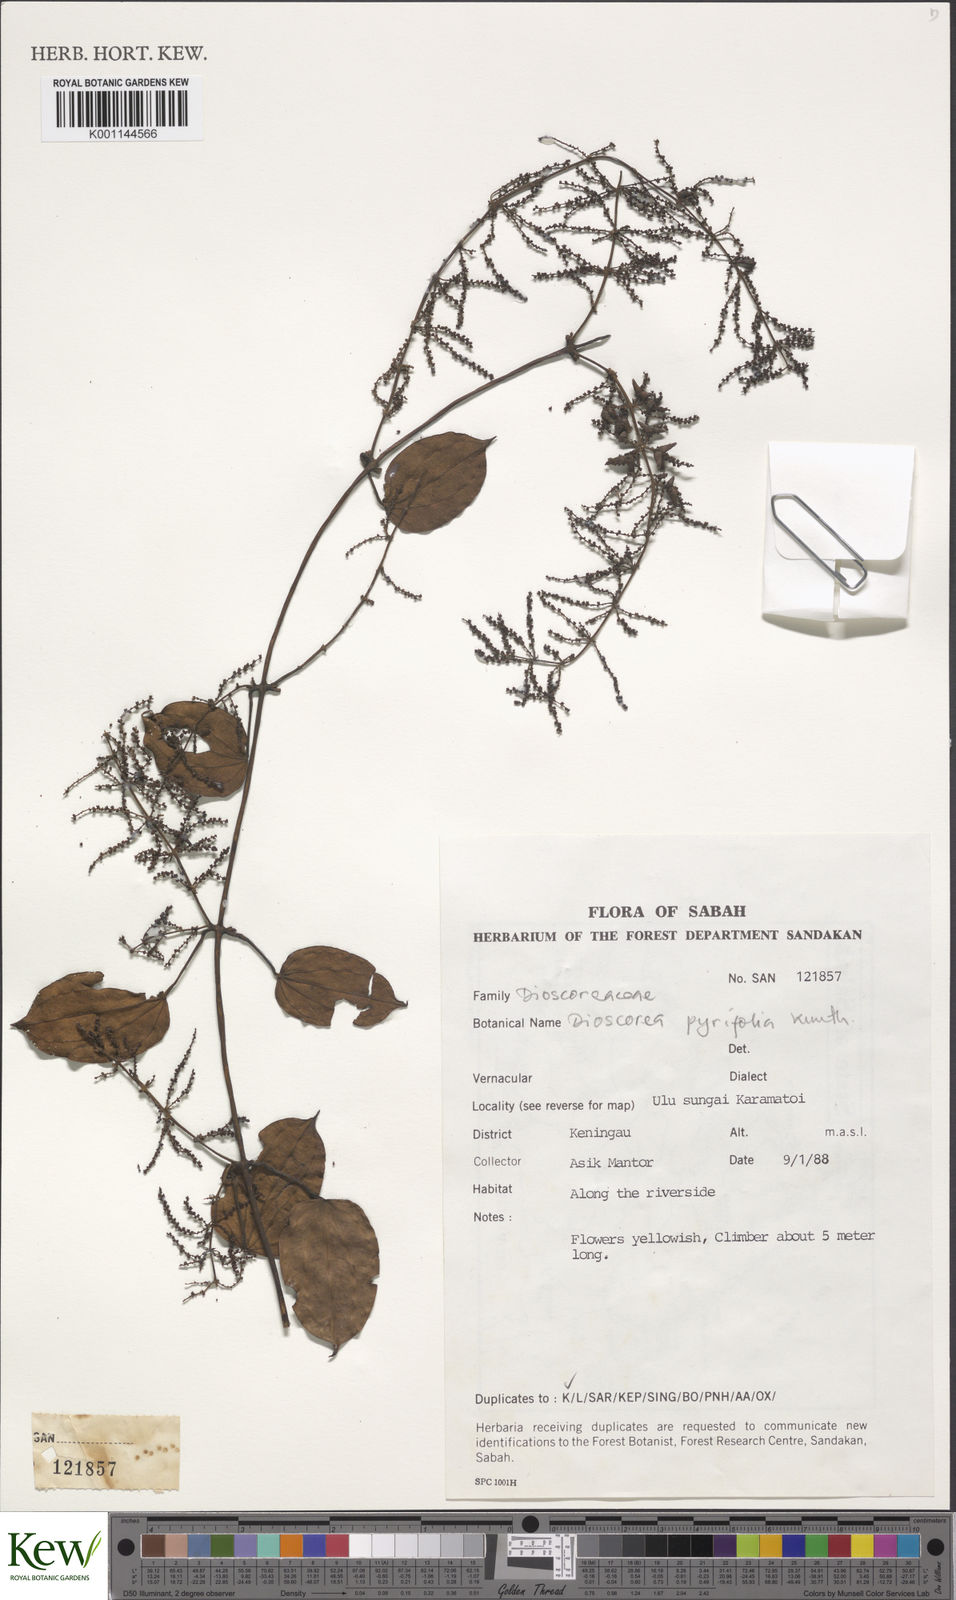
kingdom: Plantae
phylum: Tracheophyta
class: Liliopsida
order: Dioscoreales
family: Dioscoreaceae
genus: Dioscorea
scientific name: Dioscorea pyrifolia
